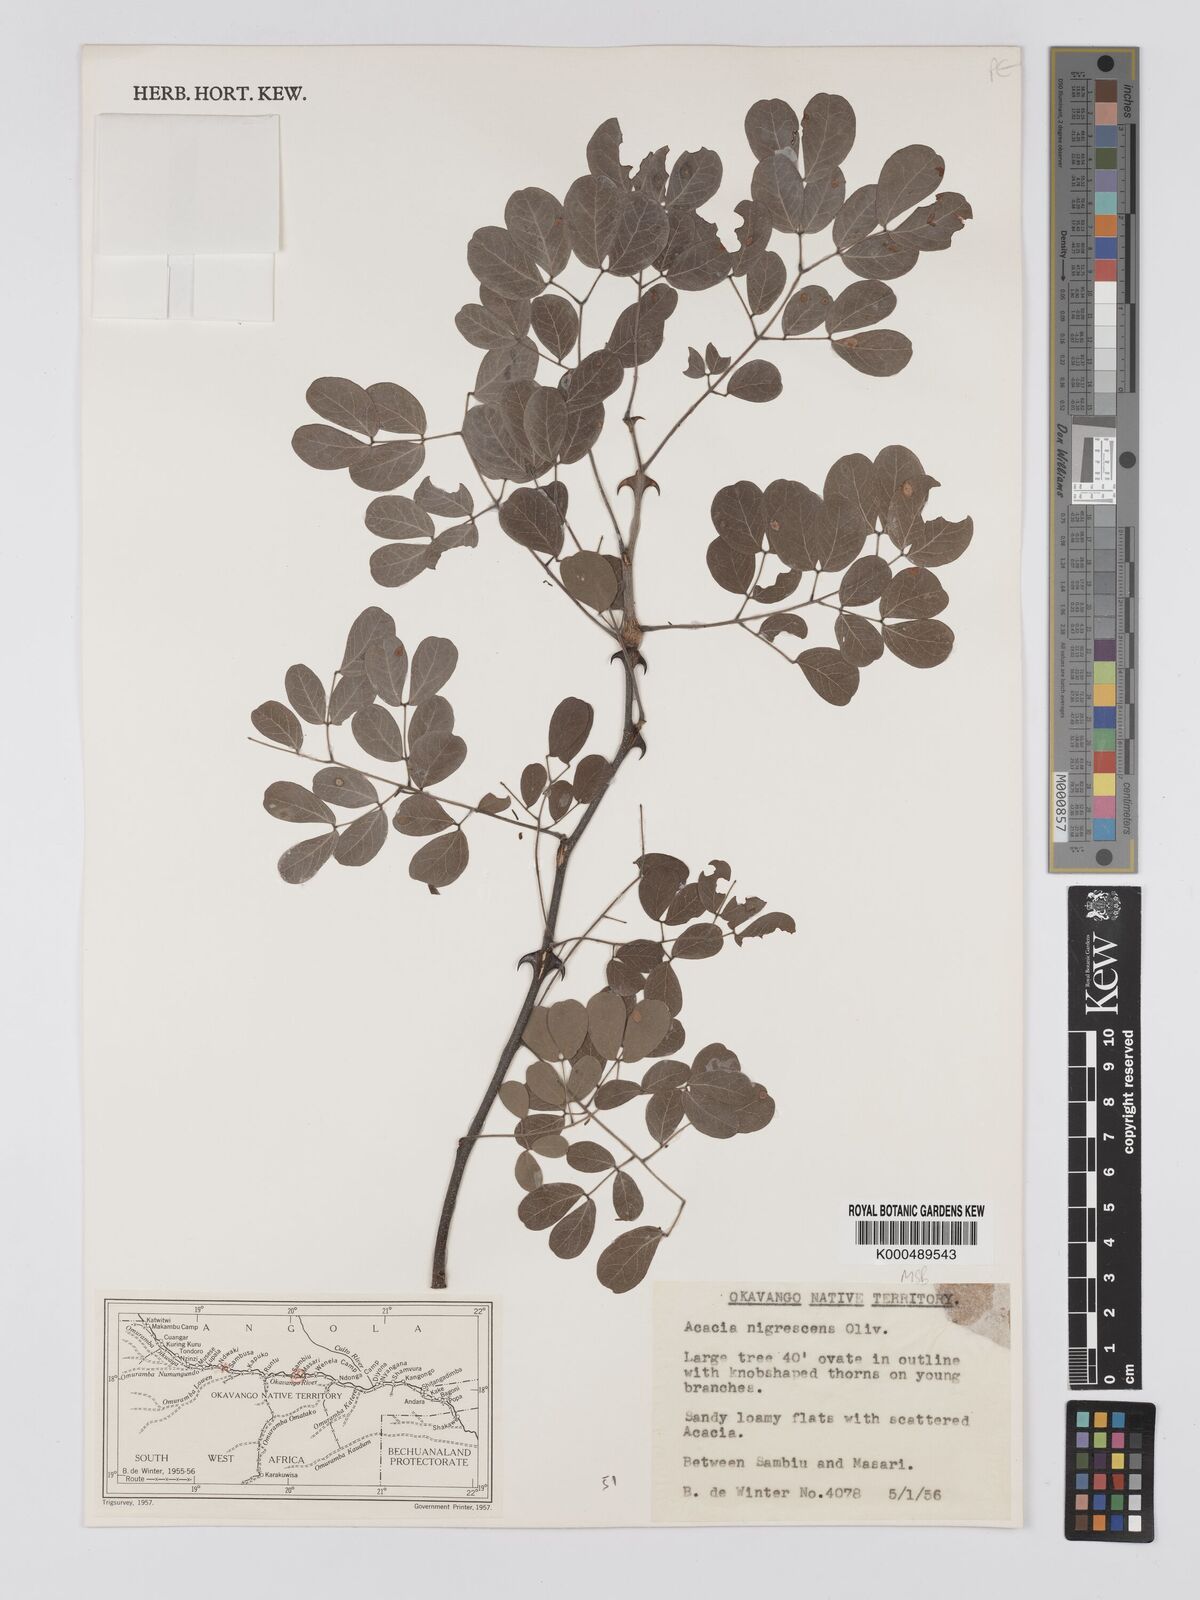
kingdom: Plantae
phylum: Tracheophyta
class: Magnoliopsida
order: Fabales
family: Fabaceae
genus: Senegalia
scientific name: Senegalia nigrescens
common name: Knobthorn
